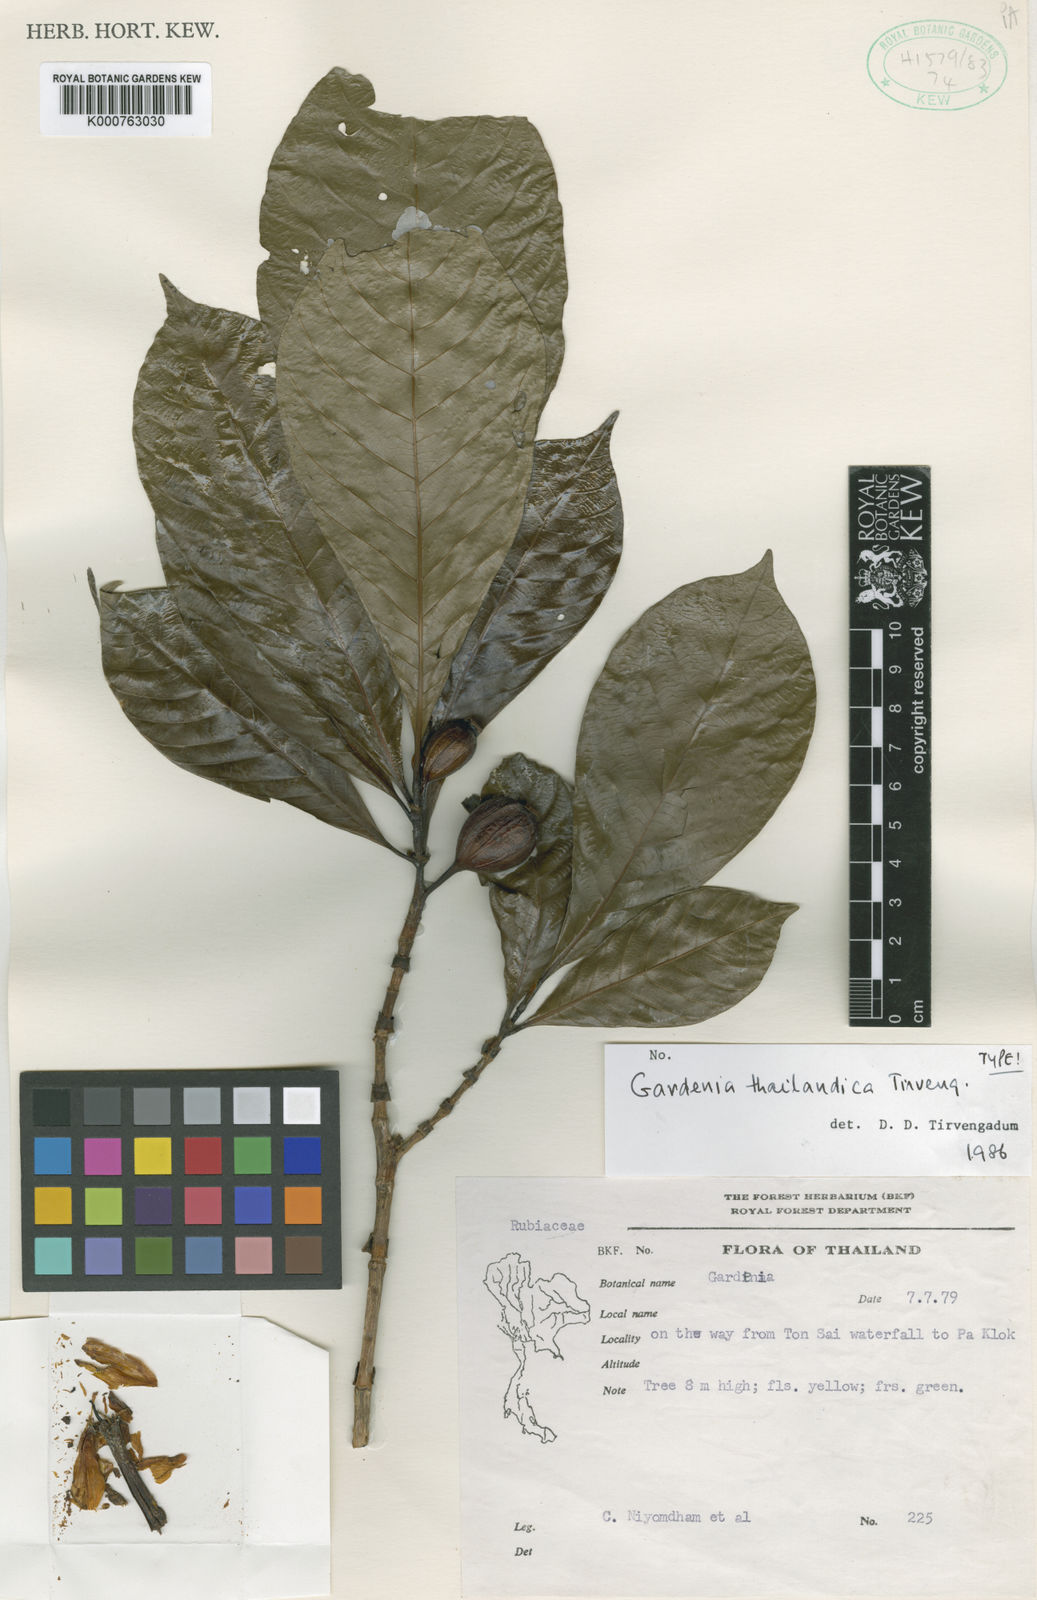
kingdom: Plantae
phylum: Tracheophyta
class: Magnoliopsida
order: Gentianales
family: Rubiaceae
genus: Gardenia
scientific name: Gardenia thailandica
